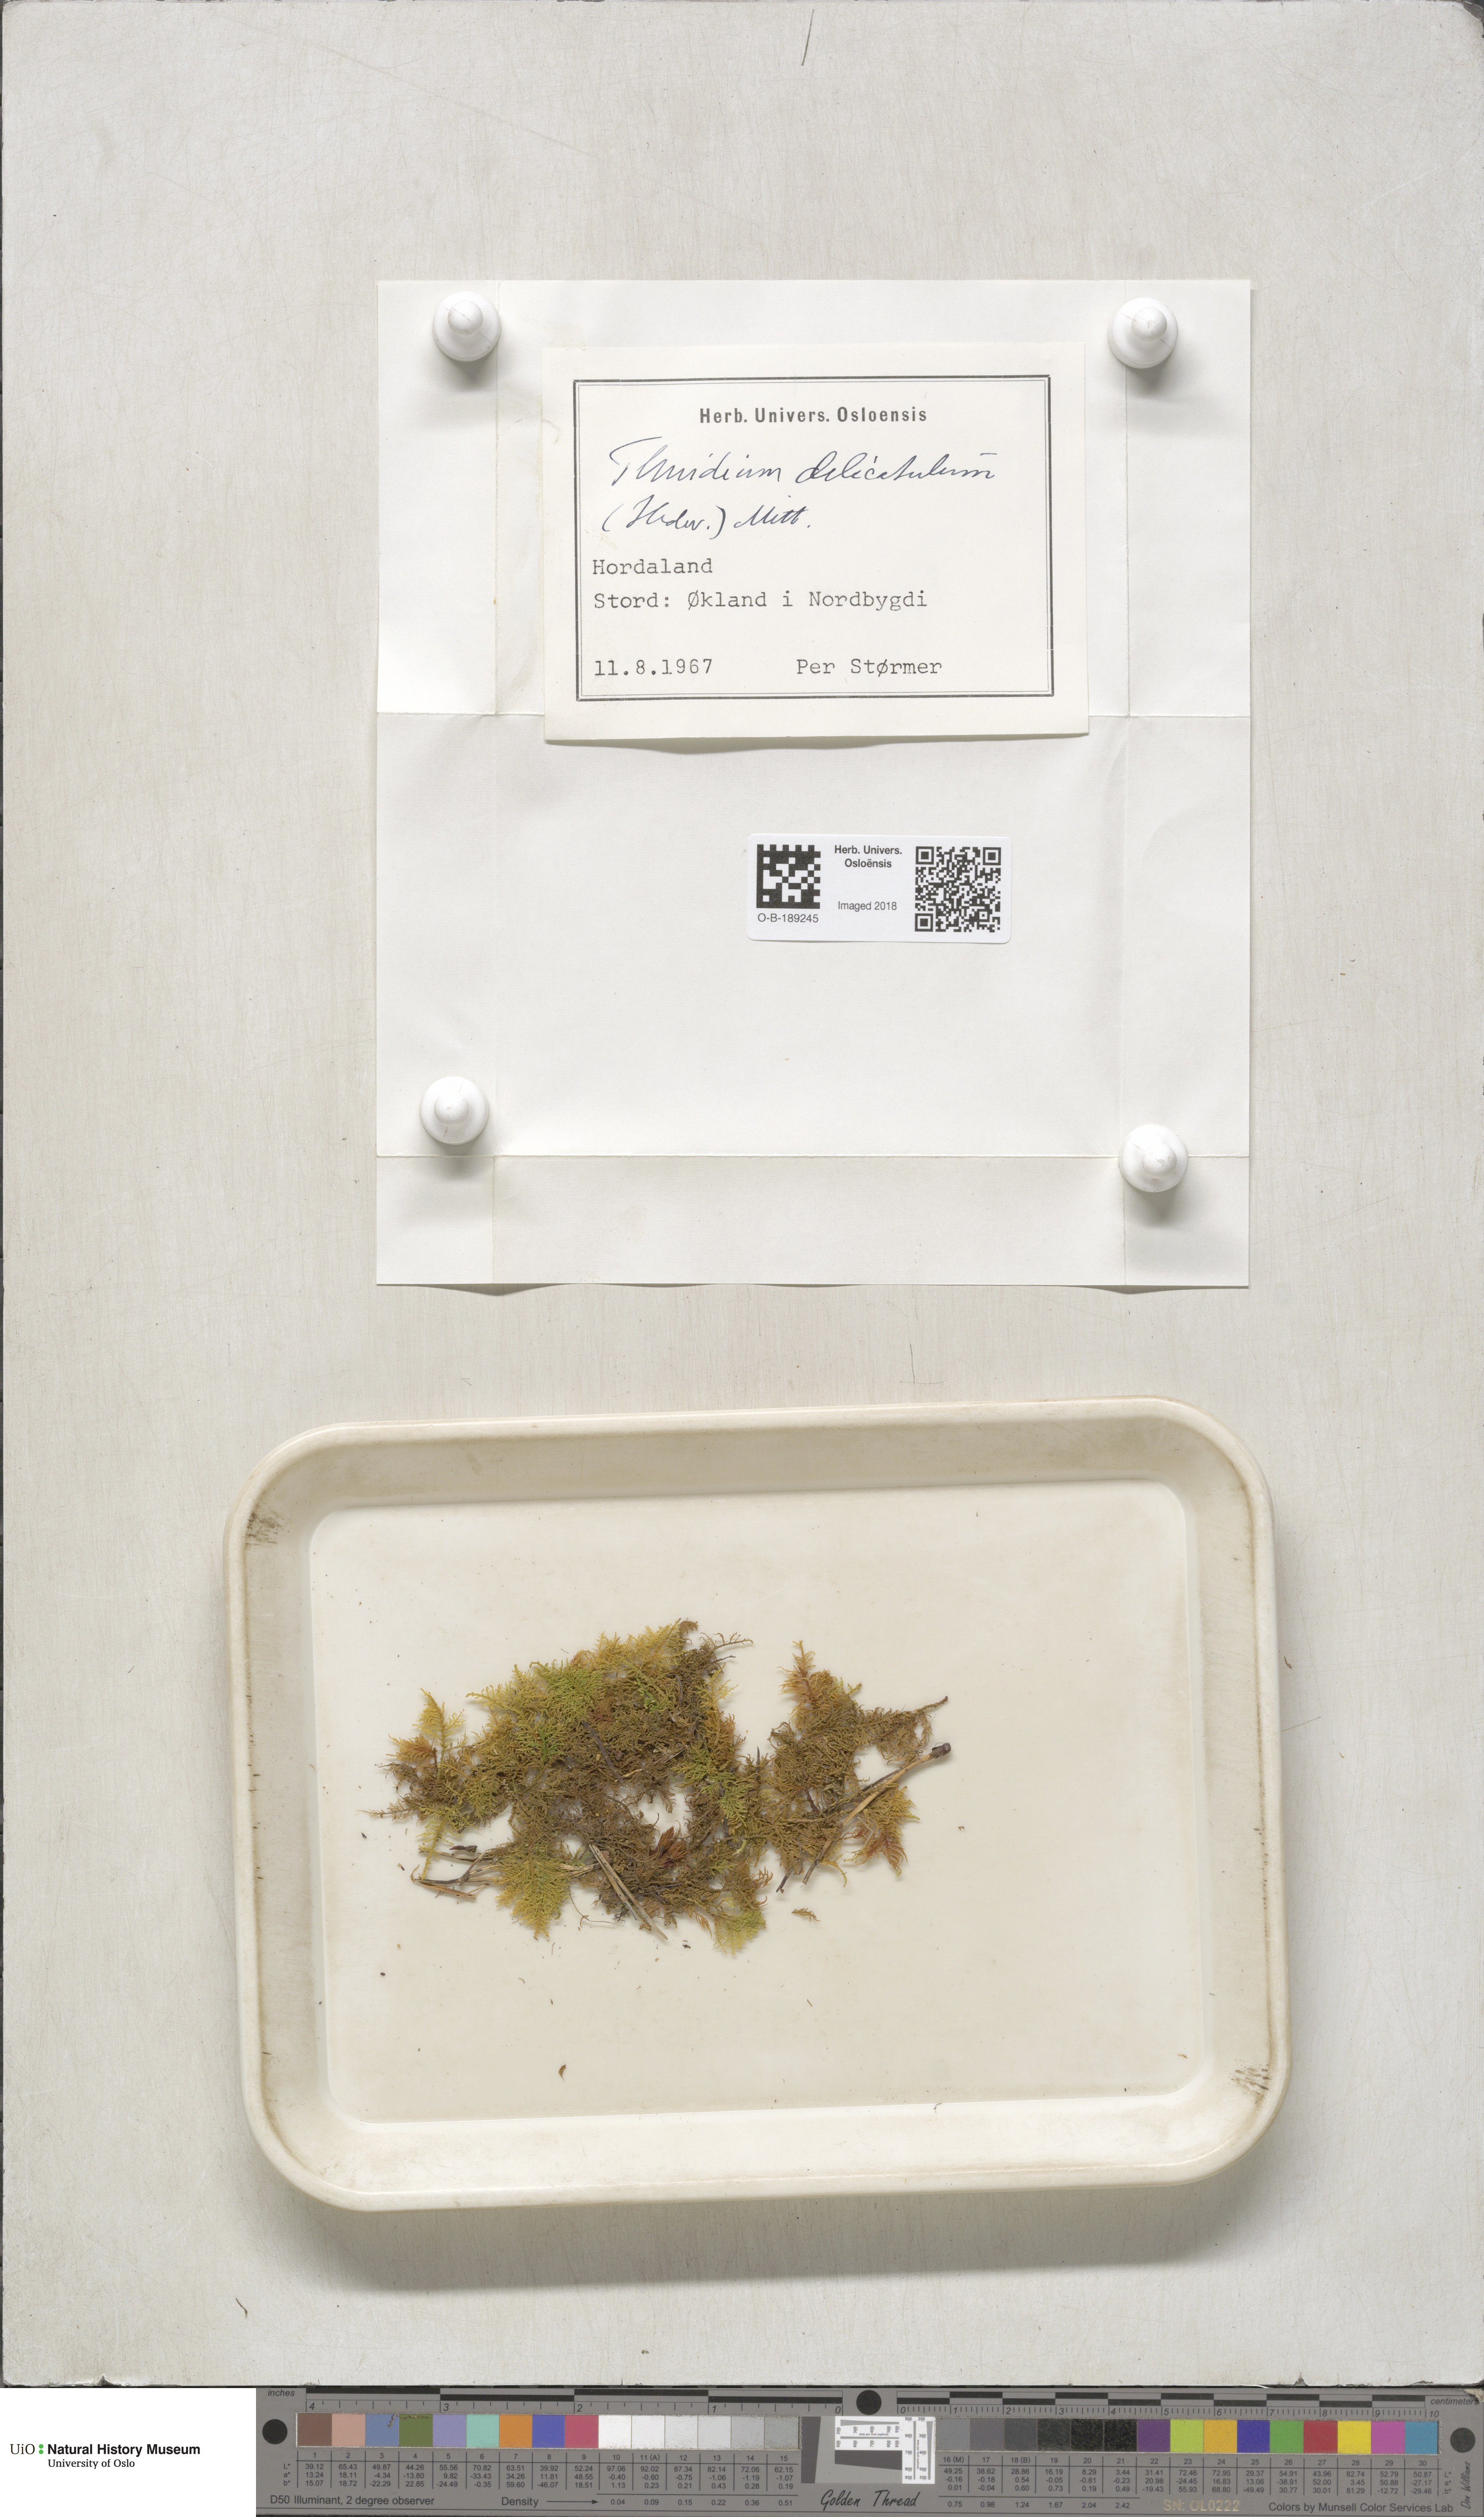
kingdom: Plantae
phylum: Bryophyta
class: Bryopsida
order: Hypnales
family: Thuidiaceae
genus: Thuidium
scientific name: Thuidium delicatulum
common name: Delicate fern moss
